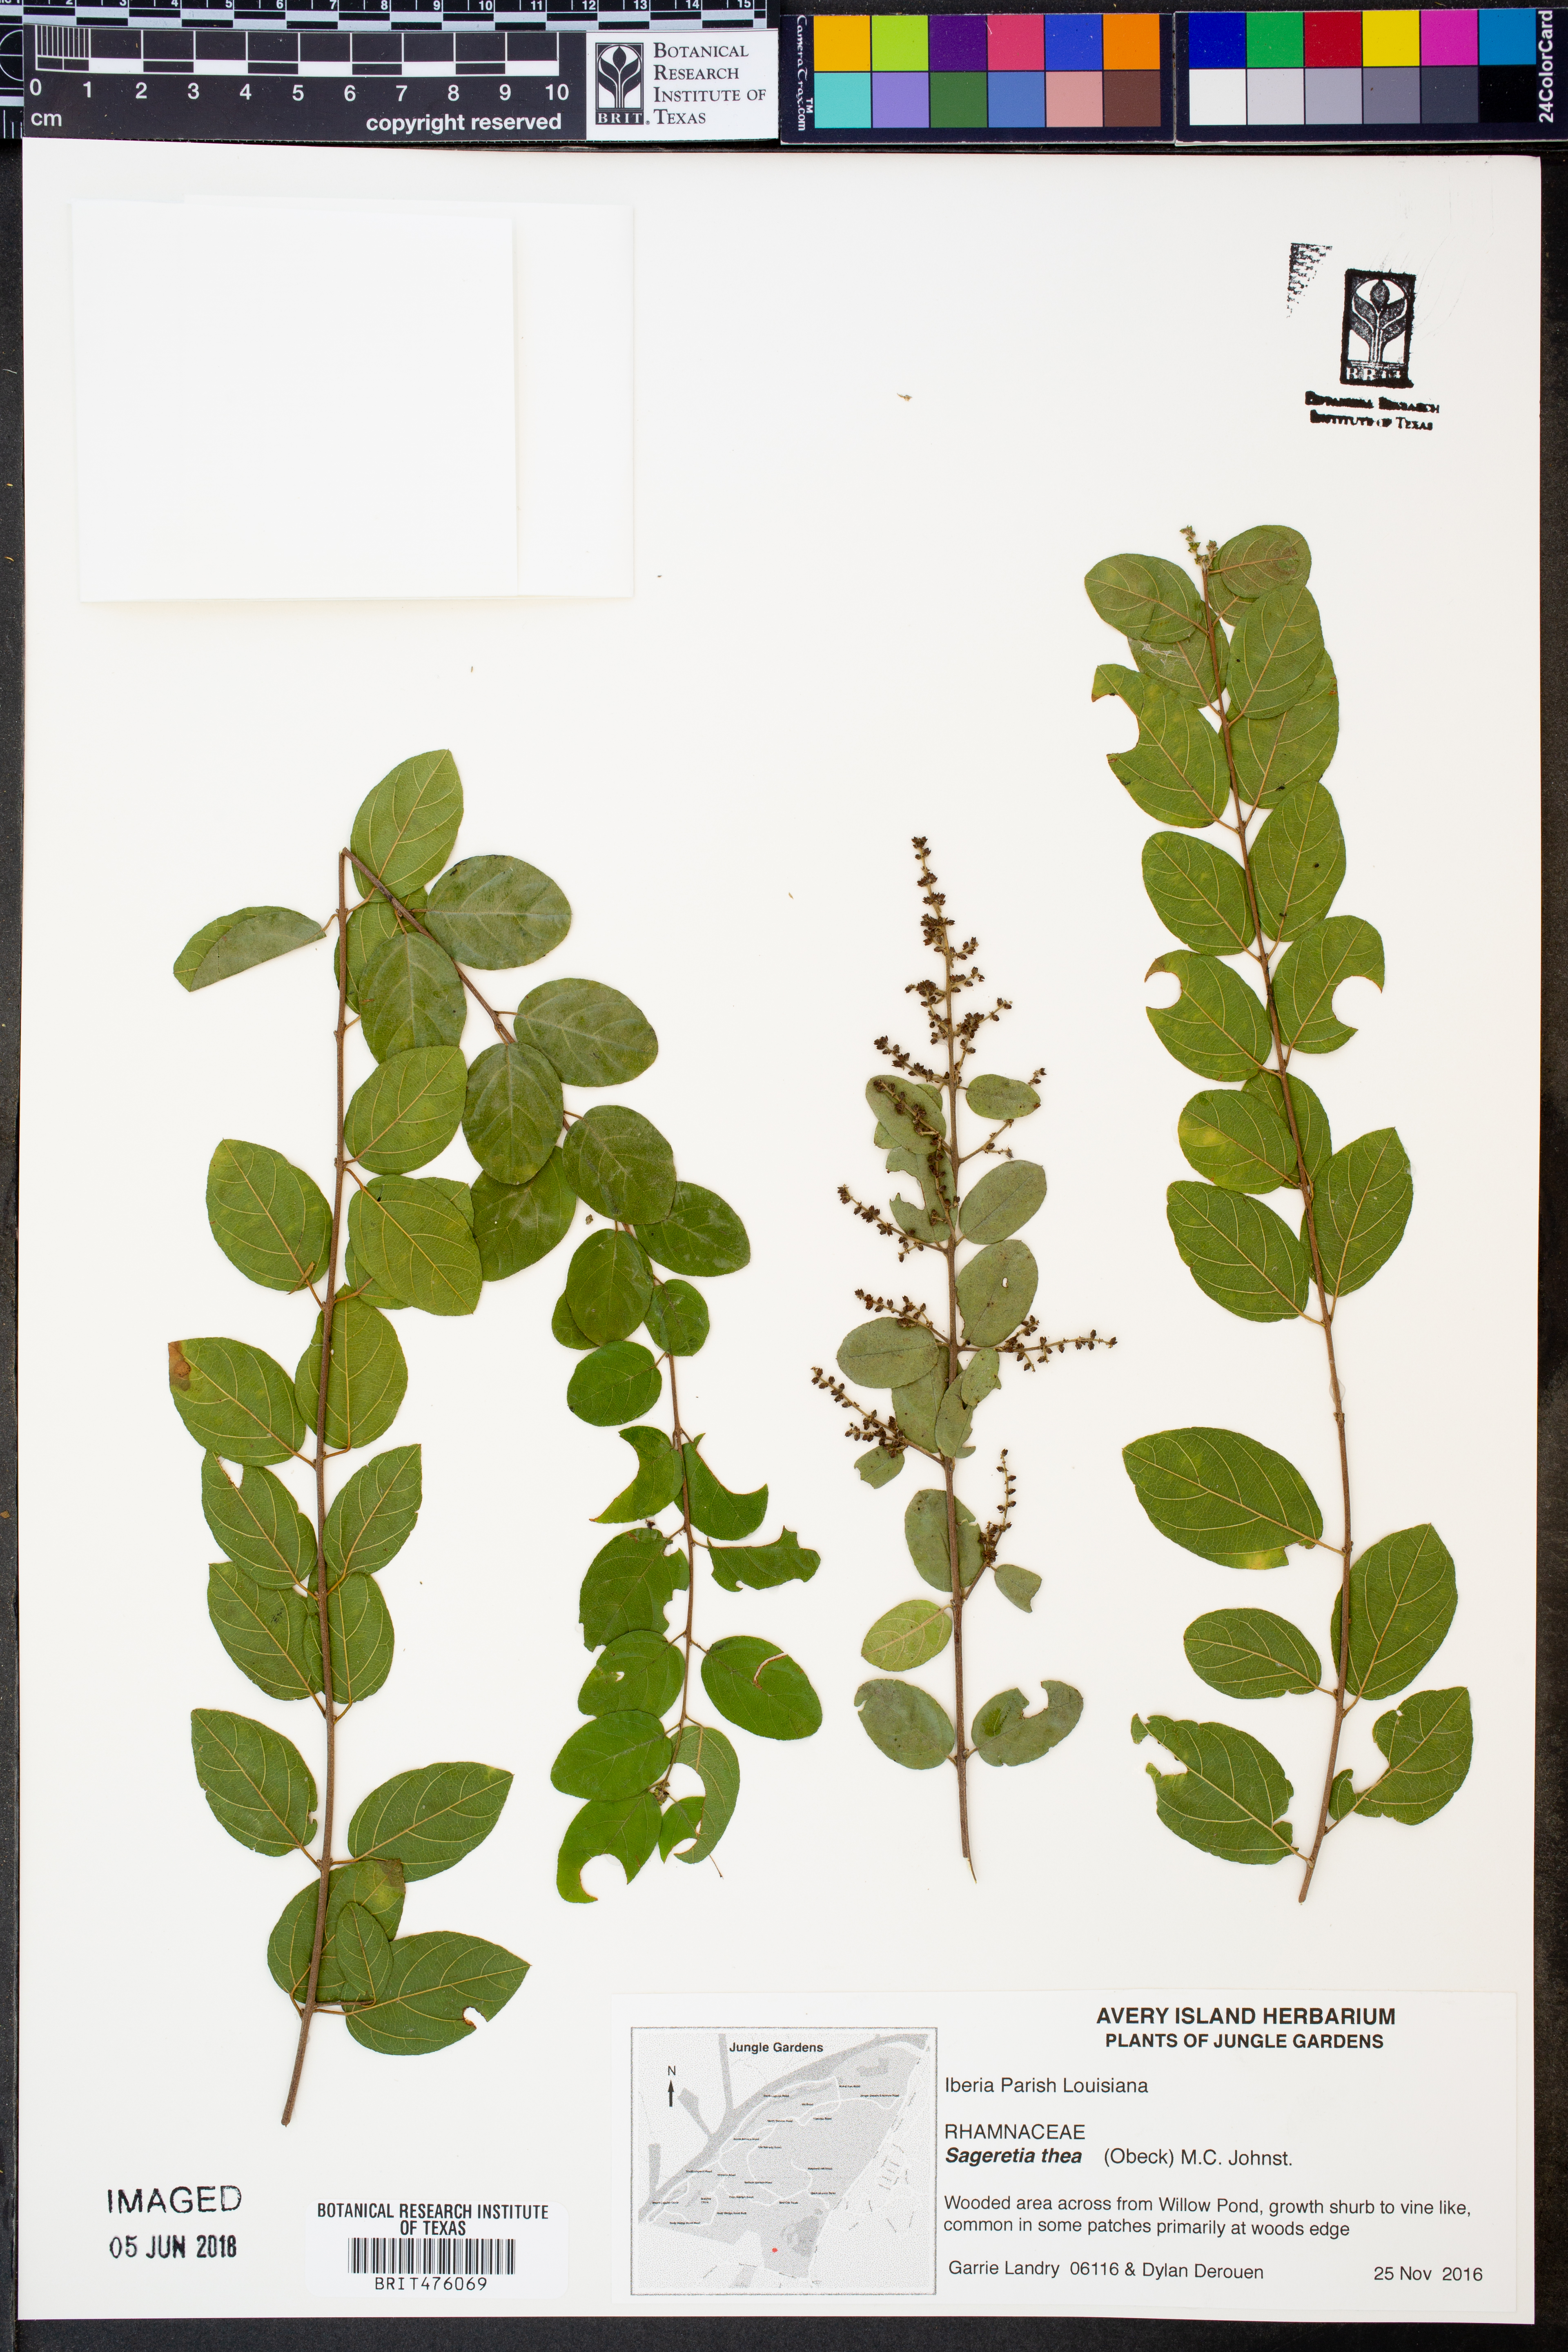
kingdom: Plantae
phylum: Tracheophyta
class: Magnoliopsida
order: Rosales
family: Rhamnaceae
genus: Sageretia
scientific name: Sageretia thea
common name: Pauper's-tea
